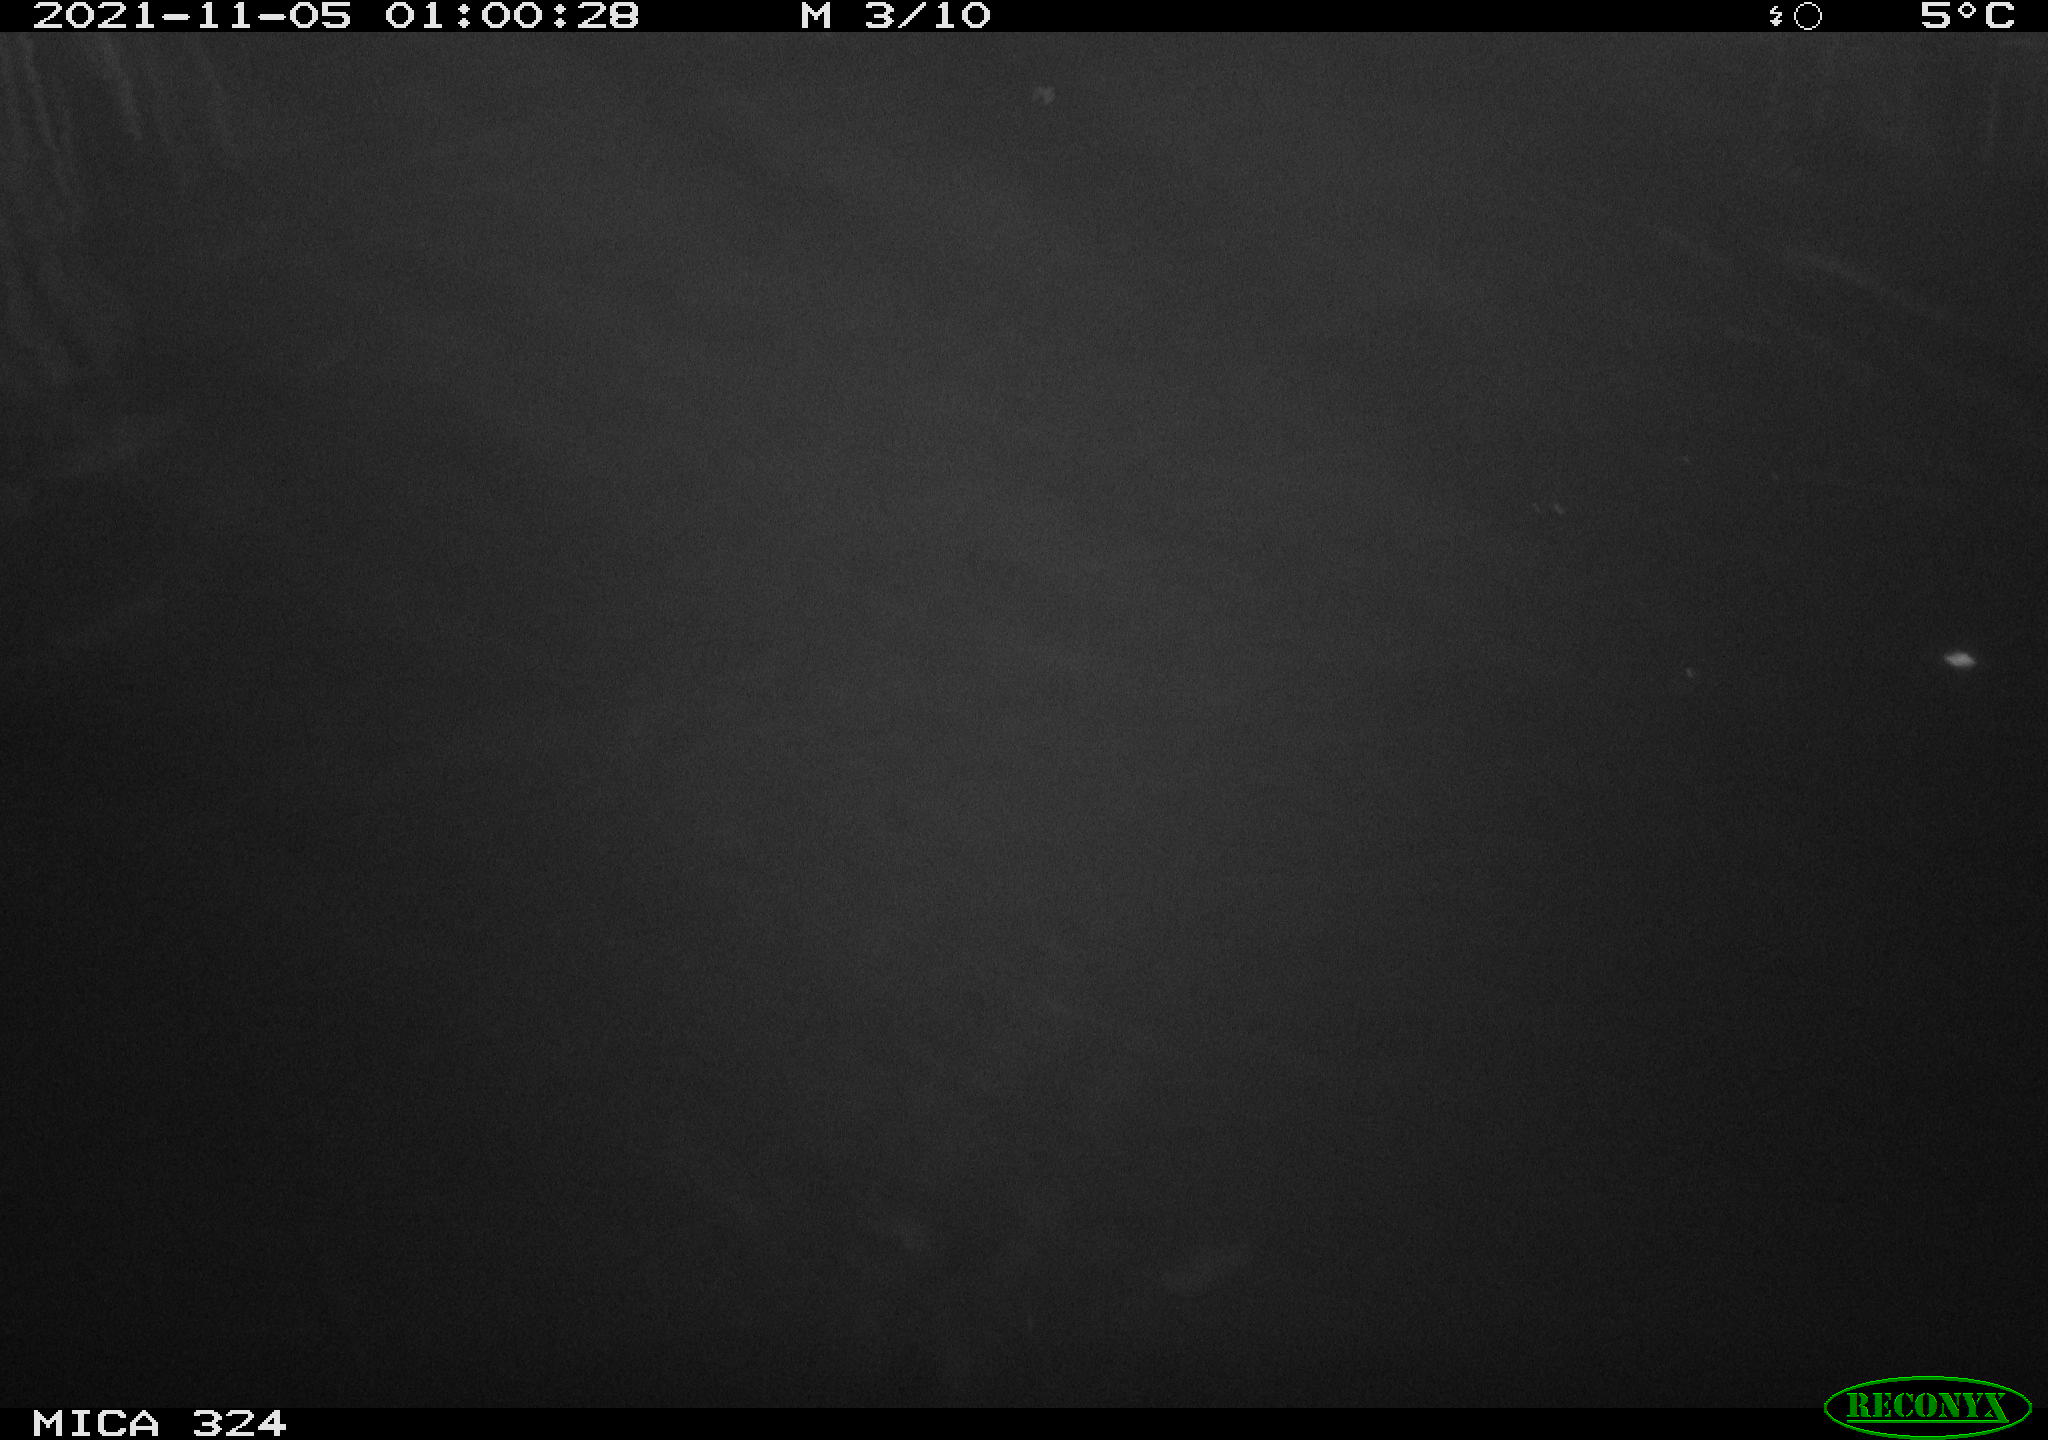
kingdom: Animalia
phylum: Chordata
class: Mammalia
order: Rodentia
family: Cricetidae
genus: Ondatra
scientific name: Ondatra zibethicus
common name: Muskrat
